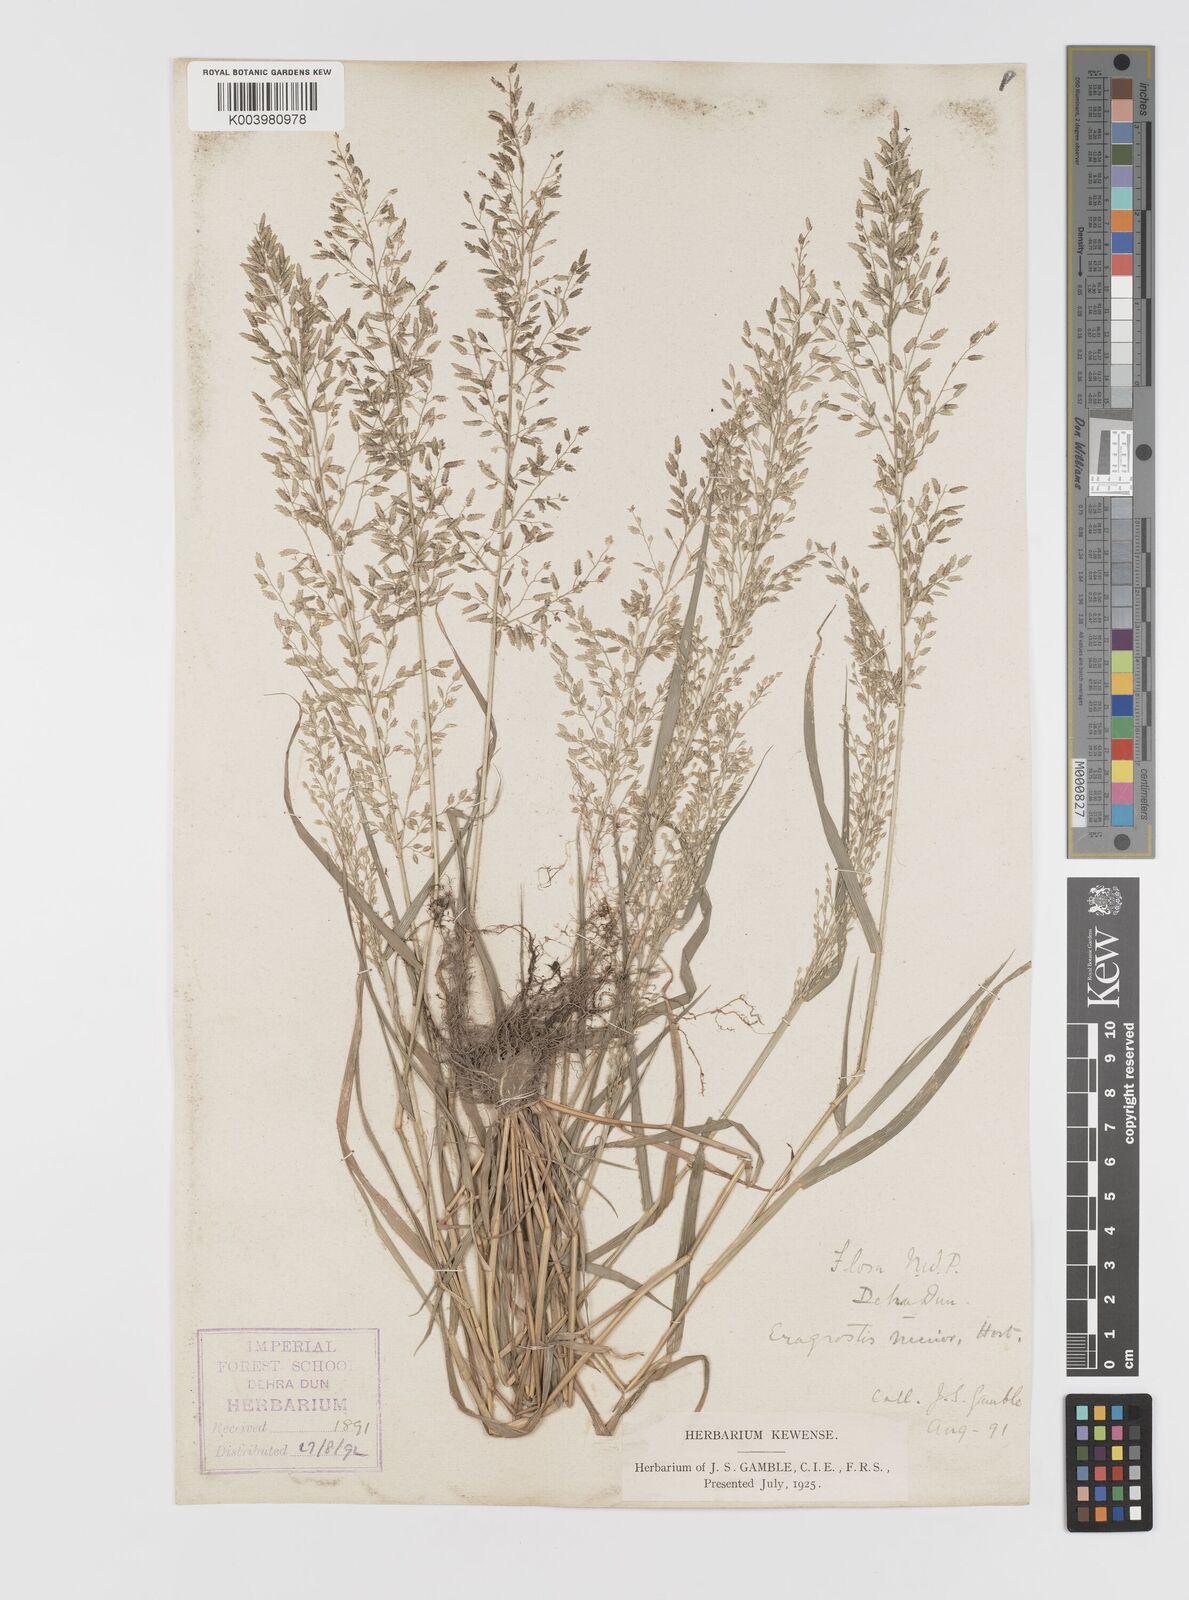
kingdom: Plantae
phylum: Tracheophyta
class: Liliopsida
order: Poales
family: Poaceae
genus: Eragrostis
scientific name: Eragrostis minor
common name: Small love-grass
